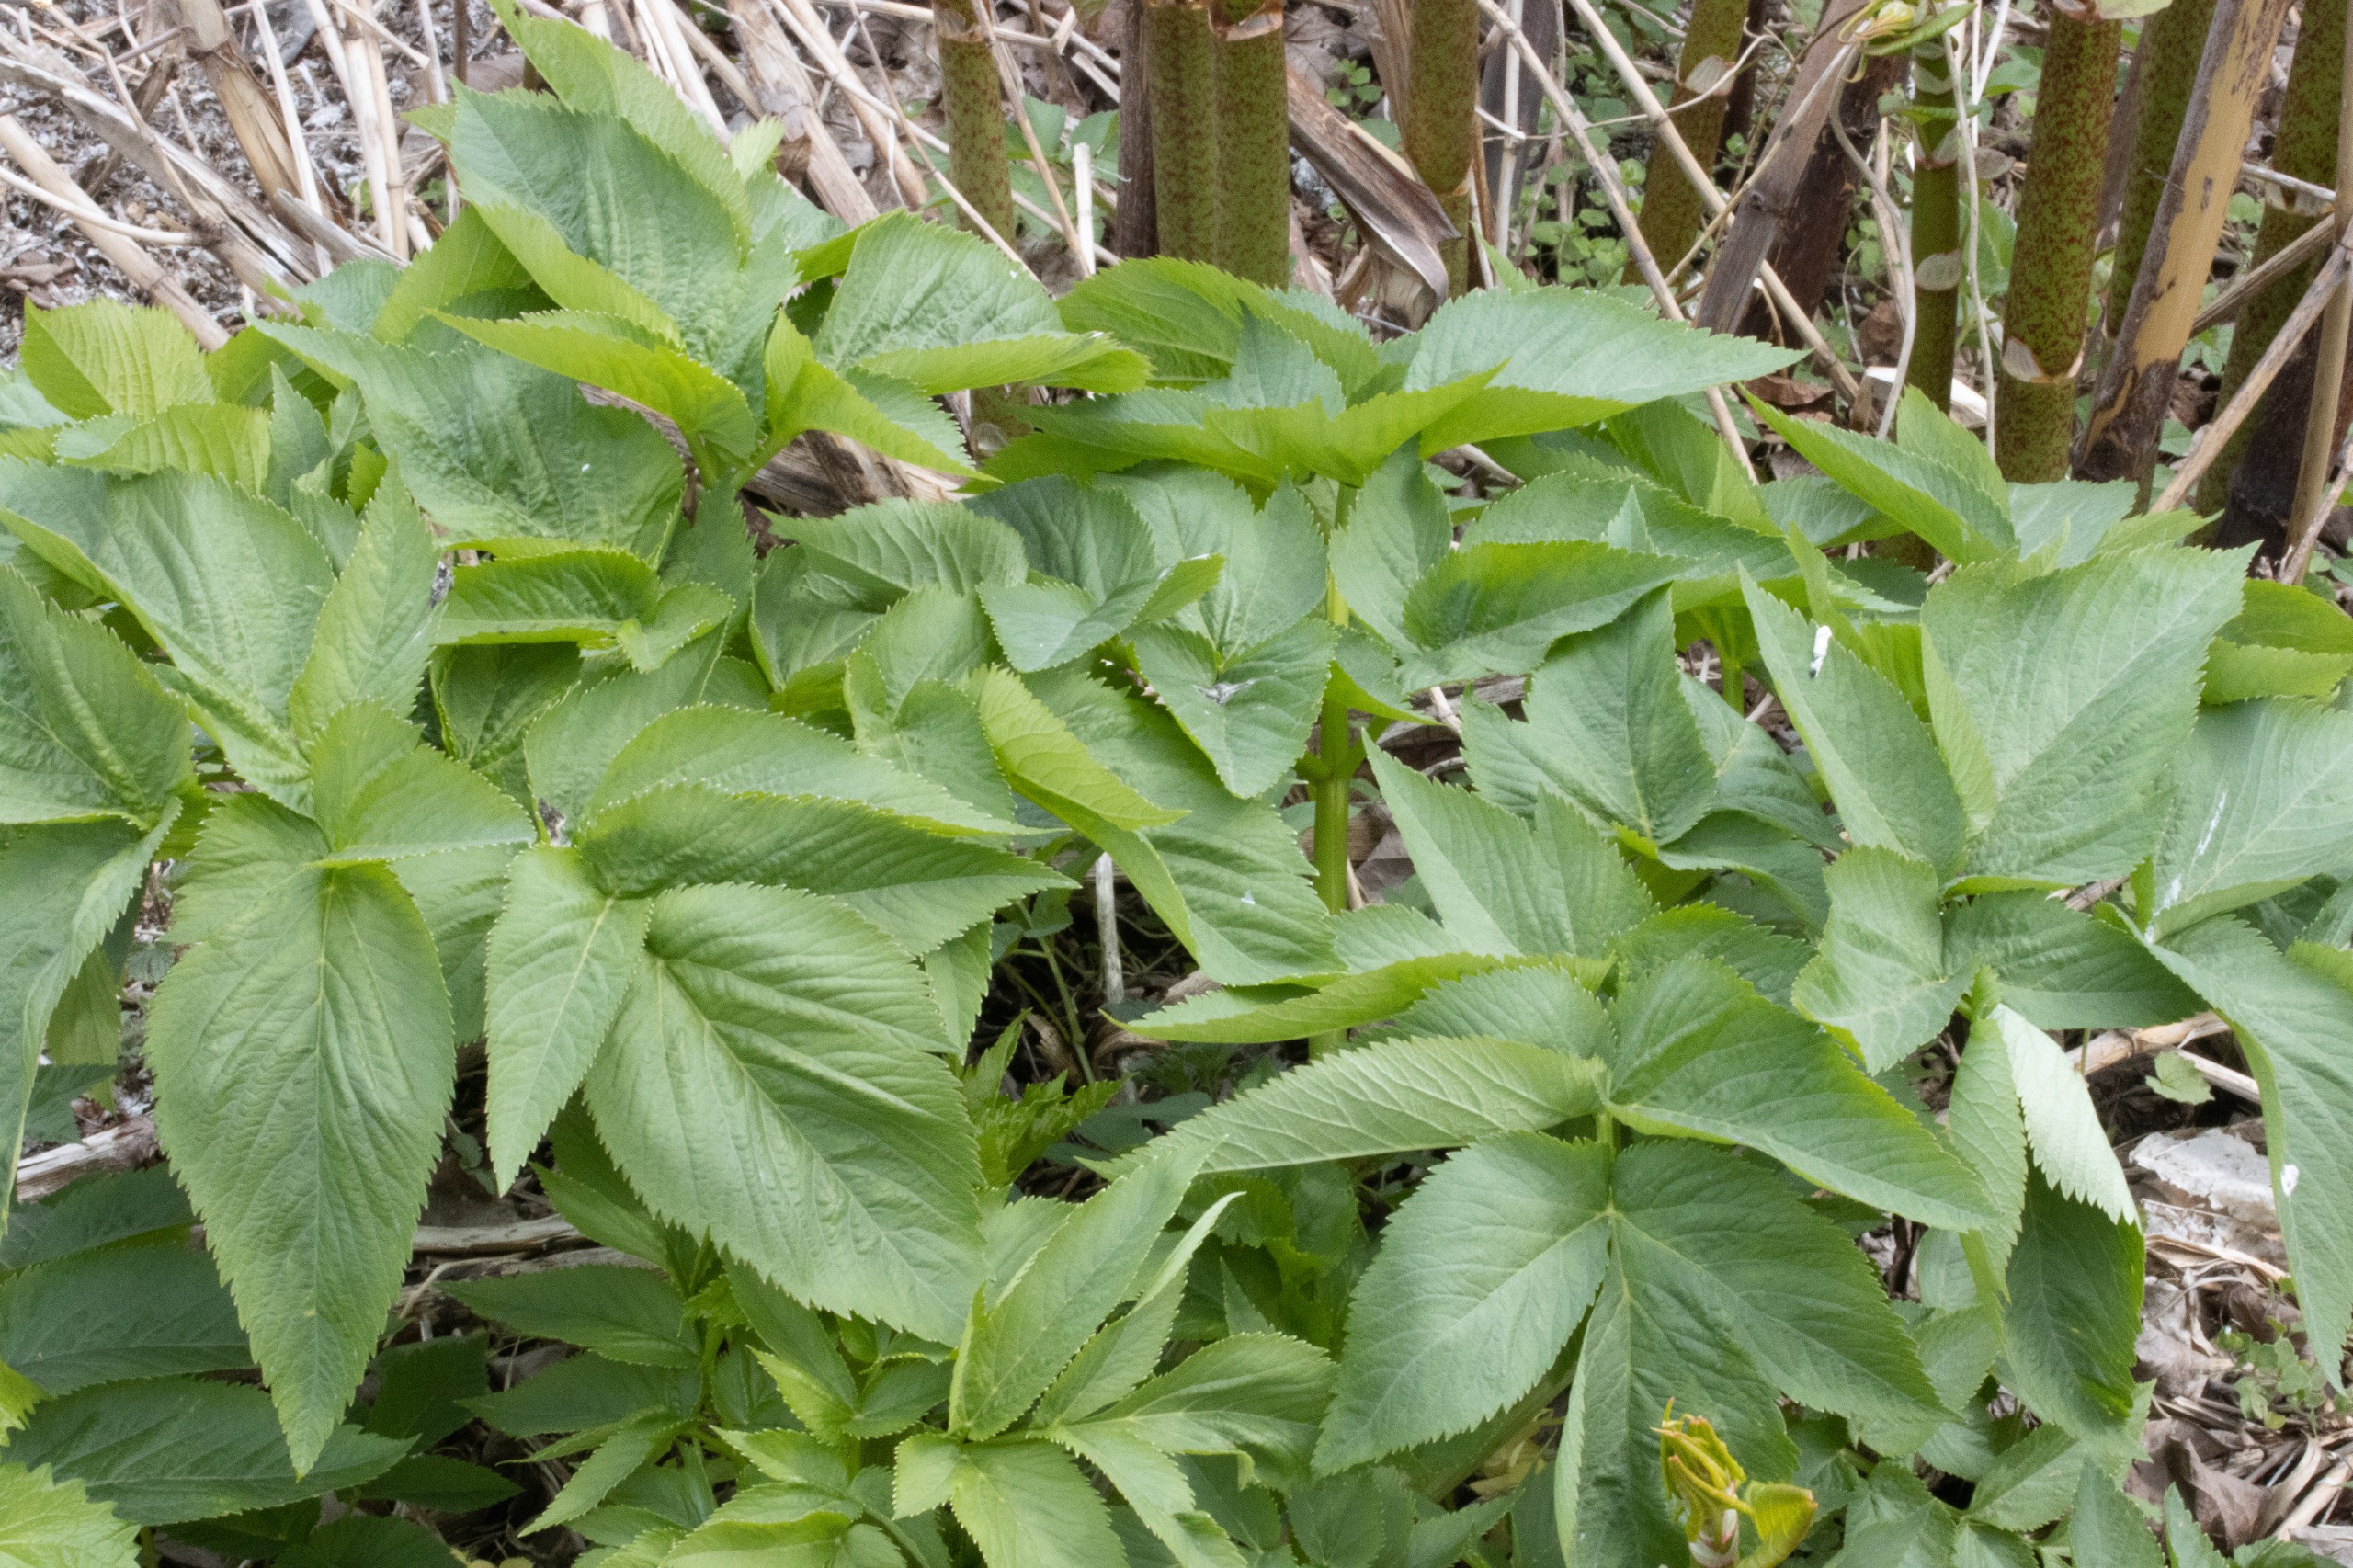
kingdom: Plantae
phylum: Tracheophyta
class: Magnoliopsida
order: Apiales
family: Apiaceae
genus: Angelica
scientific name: Angelica archangelica
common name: Kvan
